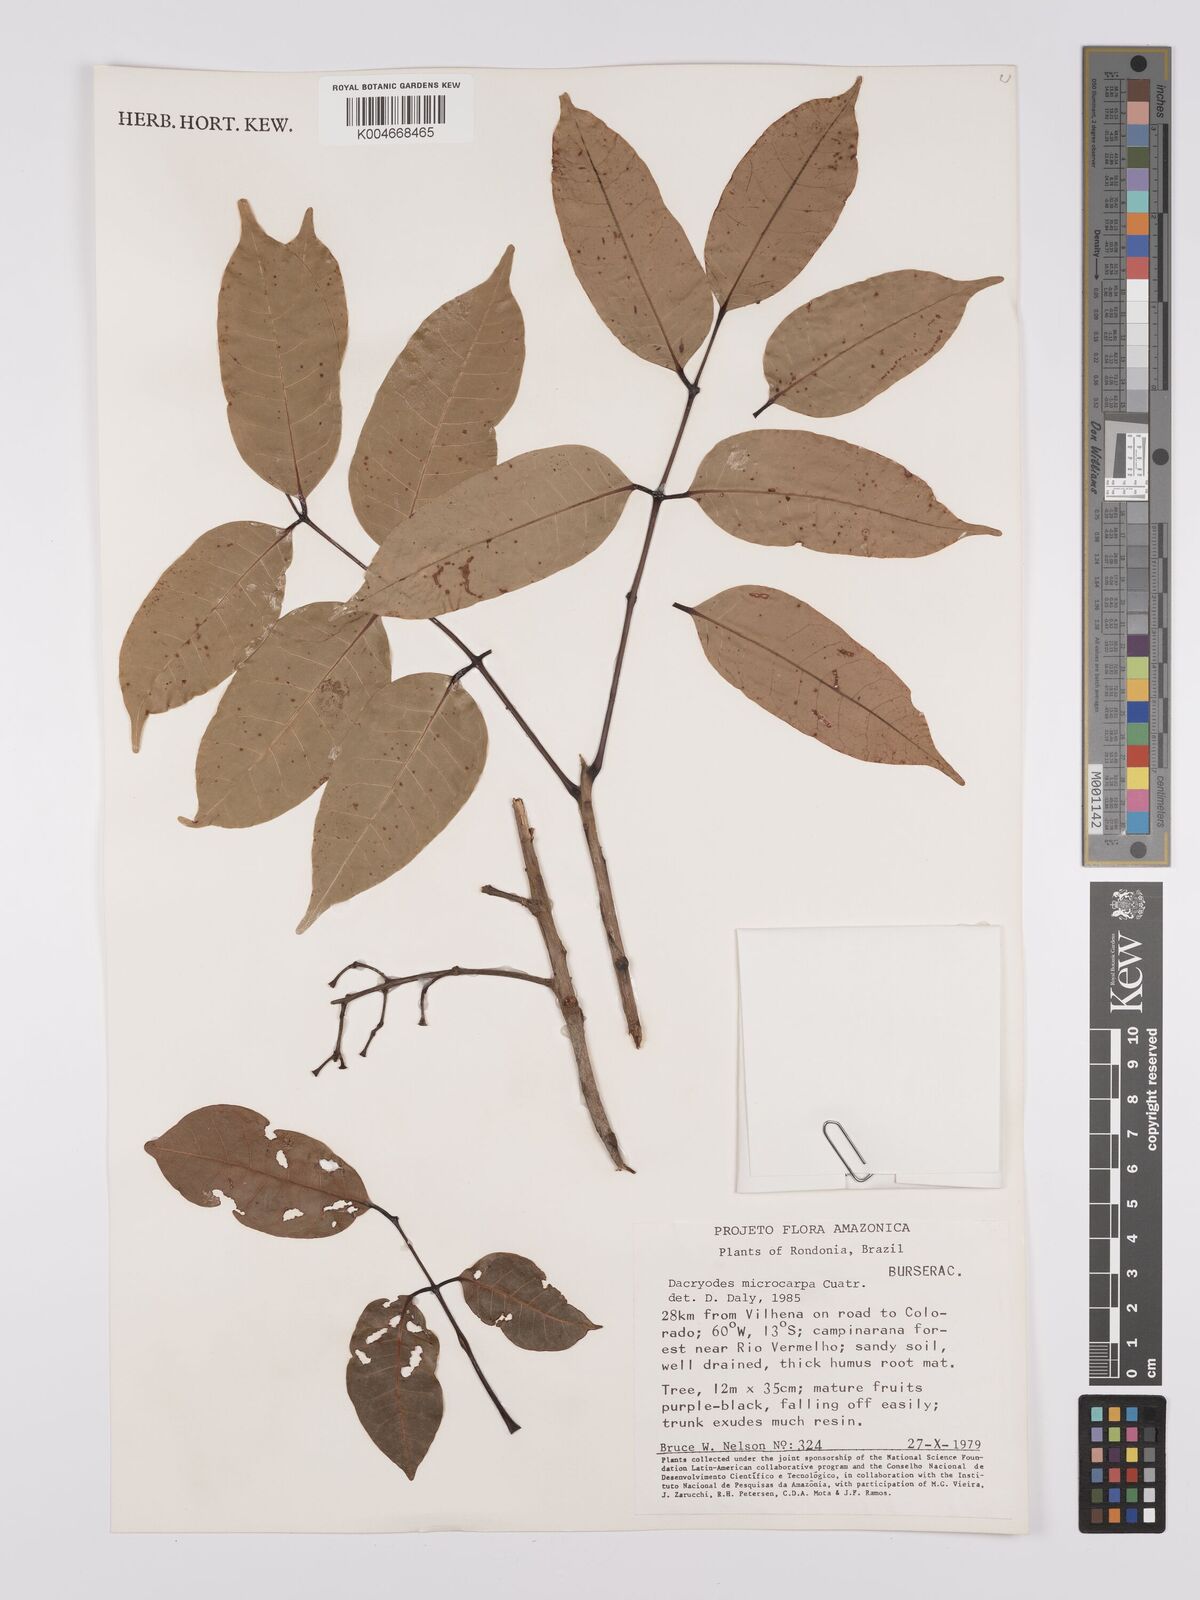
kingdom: Plantae
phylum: Tracheophyta
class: Magnoliopsida
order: Sapindales
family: Burseraceae
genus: Dacryodes
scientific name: Dacryodes microcarpa
